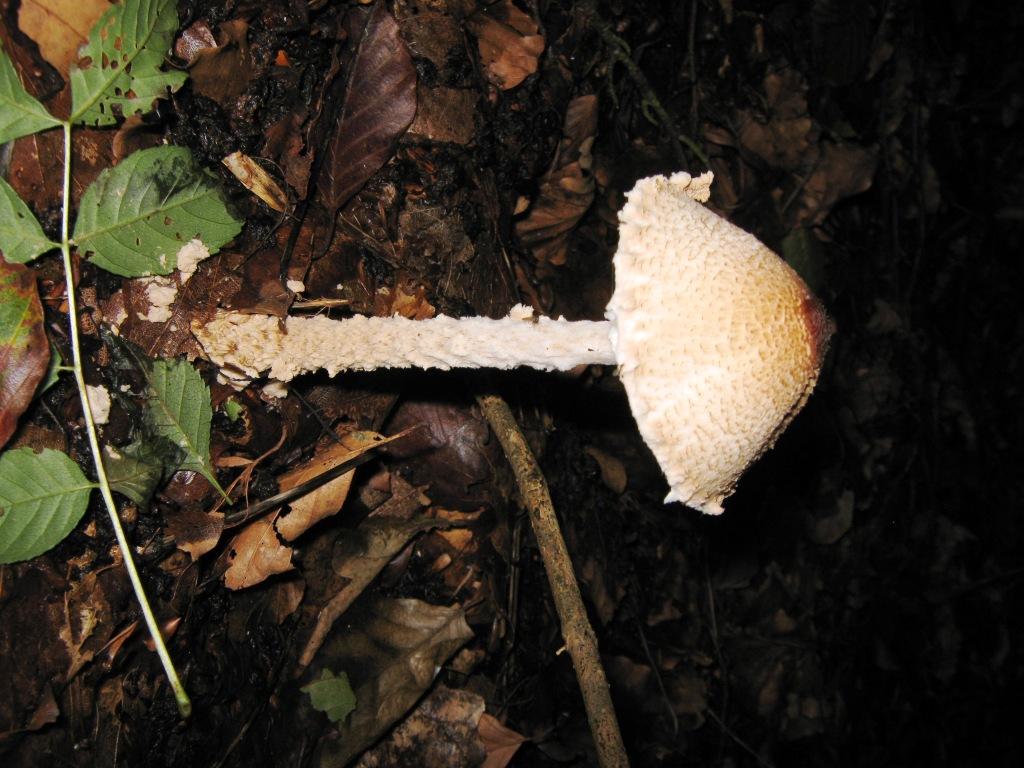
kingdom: Fungi
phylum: Basidiomycota
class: Agaricomycetes
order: Agaricales
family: Agaricaceae
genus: Lepiota
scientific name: Lepiota clypeolaria
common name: flosset parasolhat
